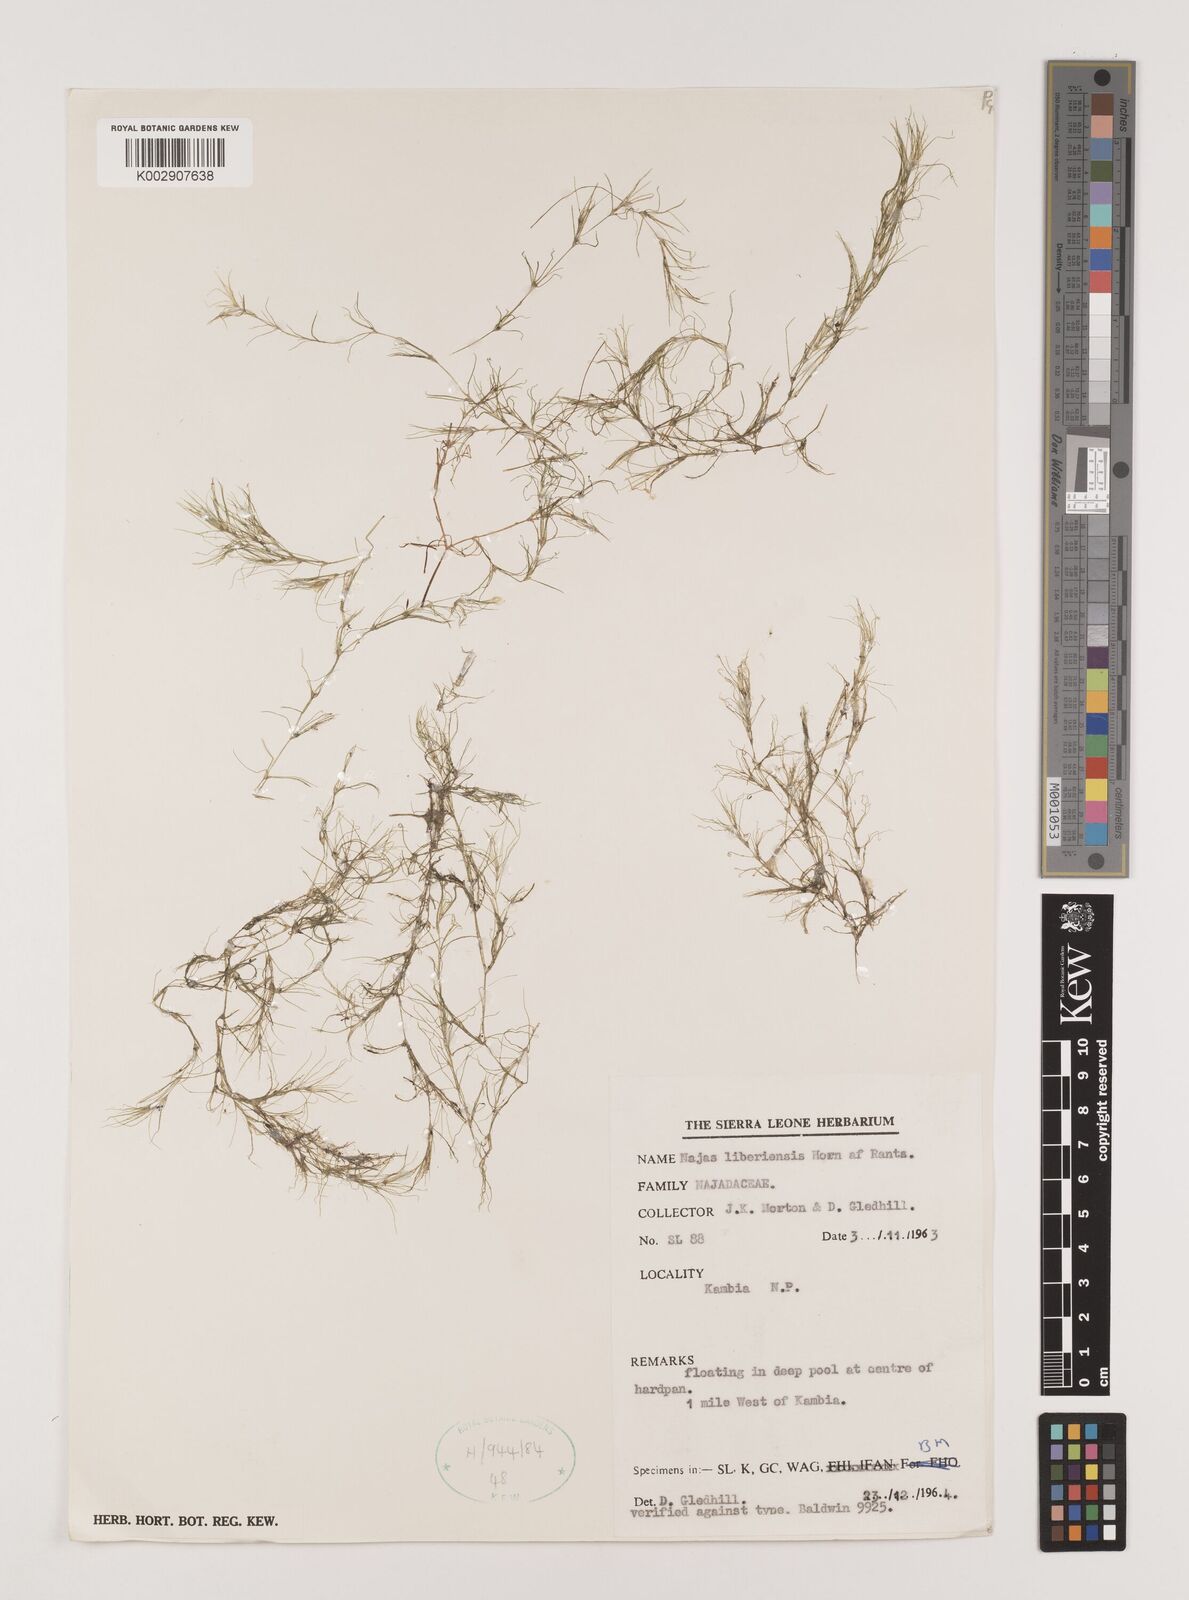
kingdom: Plantae
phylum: Tracheophyta
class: Liliopsida
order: Alismatales
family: Hydrocharitaceae
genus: Najas
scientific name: Najas baldwinii
